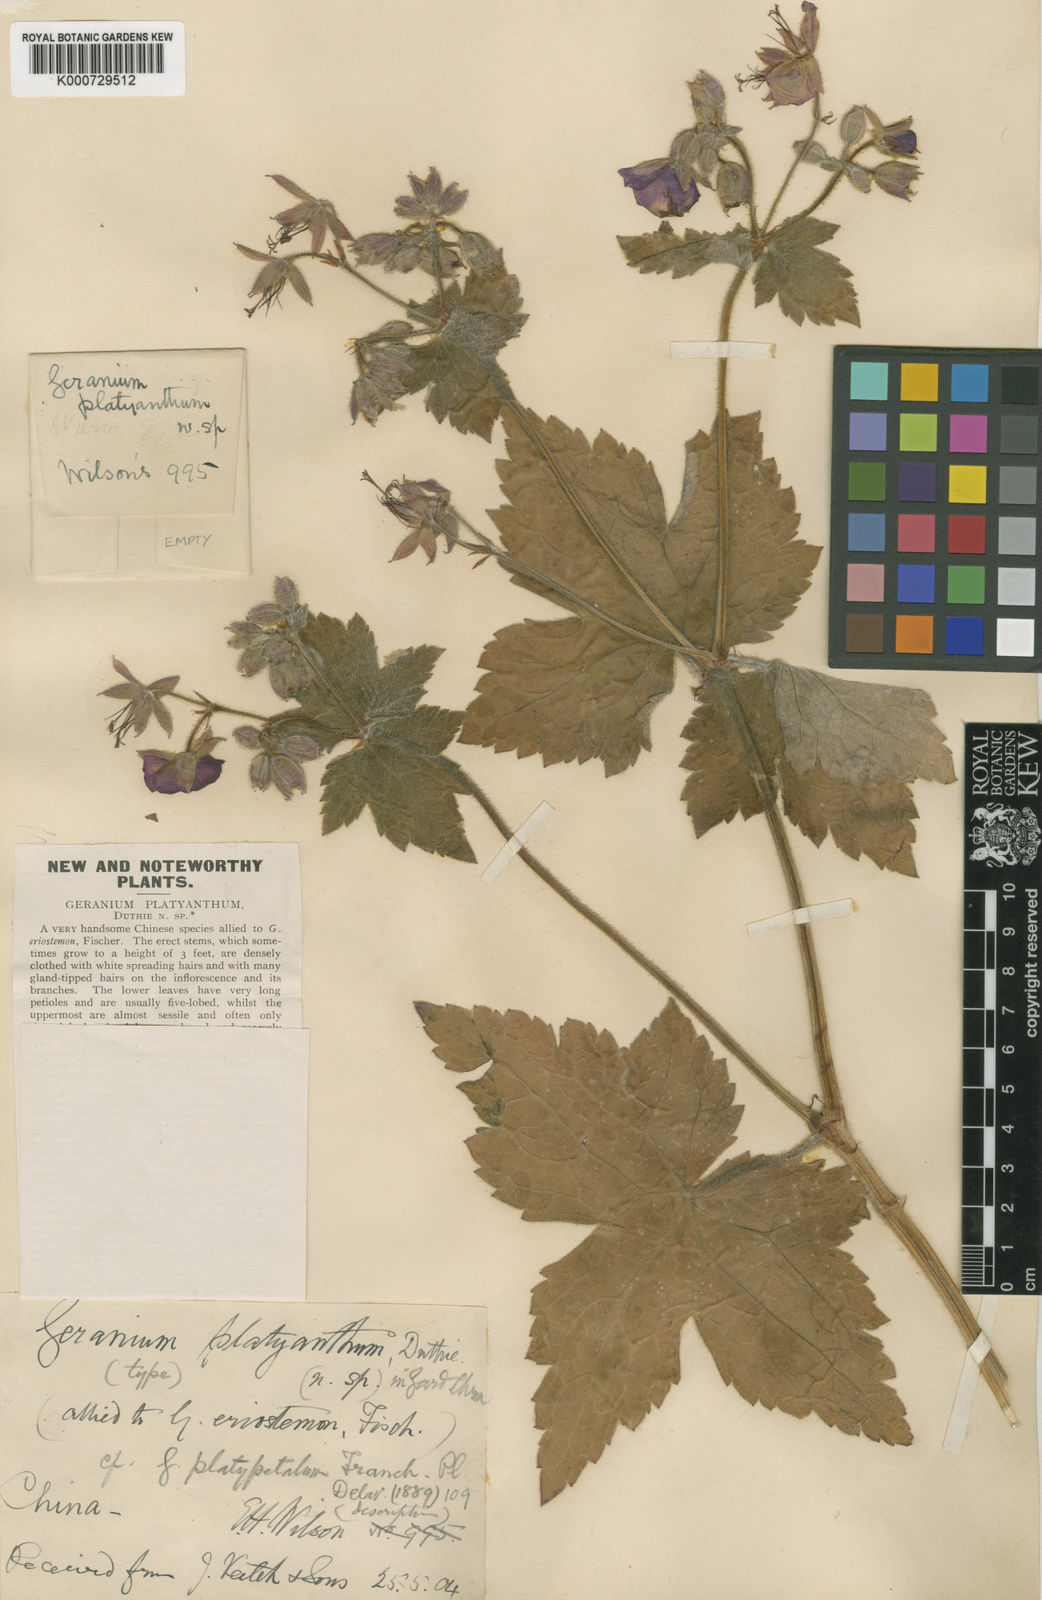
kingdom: Plantae
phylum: Tracheophyta
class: Magnoliopsida
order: Geraniales
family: Geraniaceae
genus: Geranium
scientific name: Geranium platyanthum
